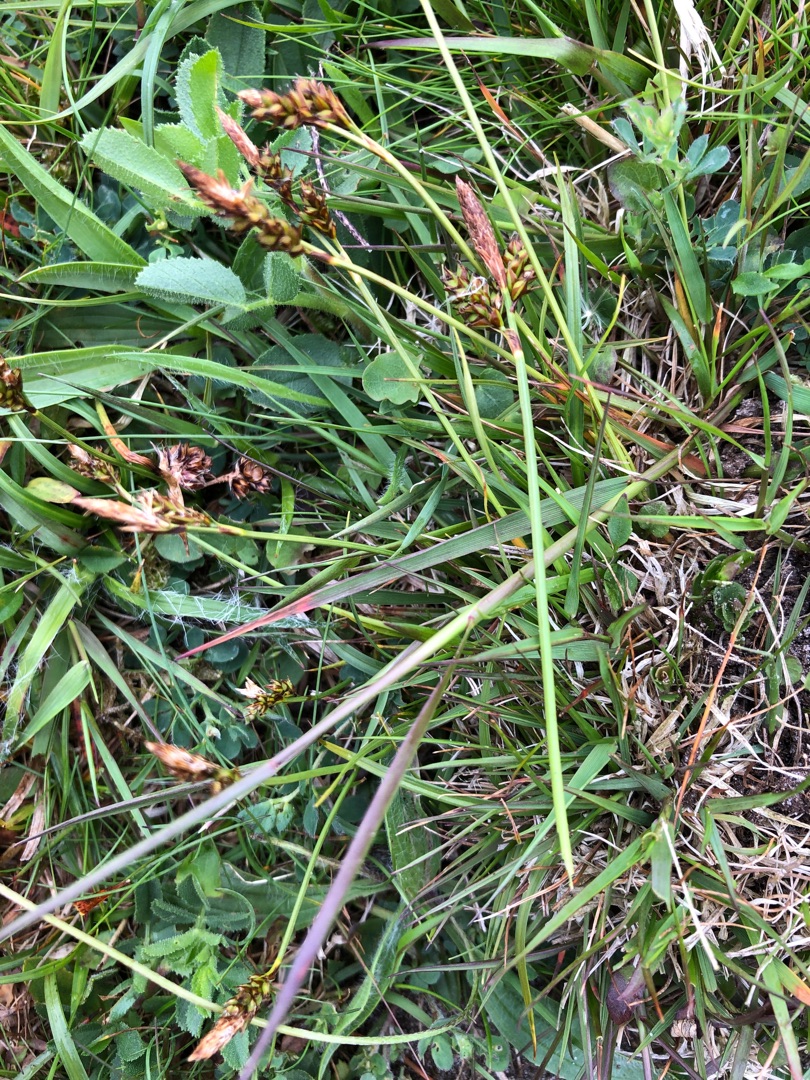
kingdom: Plantae
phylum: Tracheophyta
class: Liliopsida
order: Poales
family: Cyperaceae
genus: Carex
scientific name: Carex caryophyllea
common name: Vår-star
